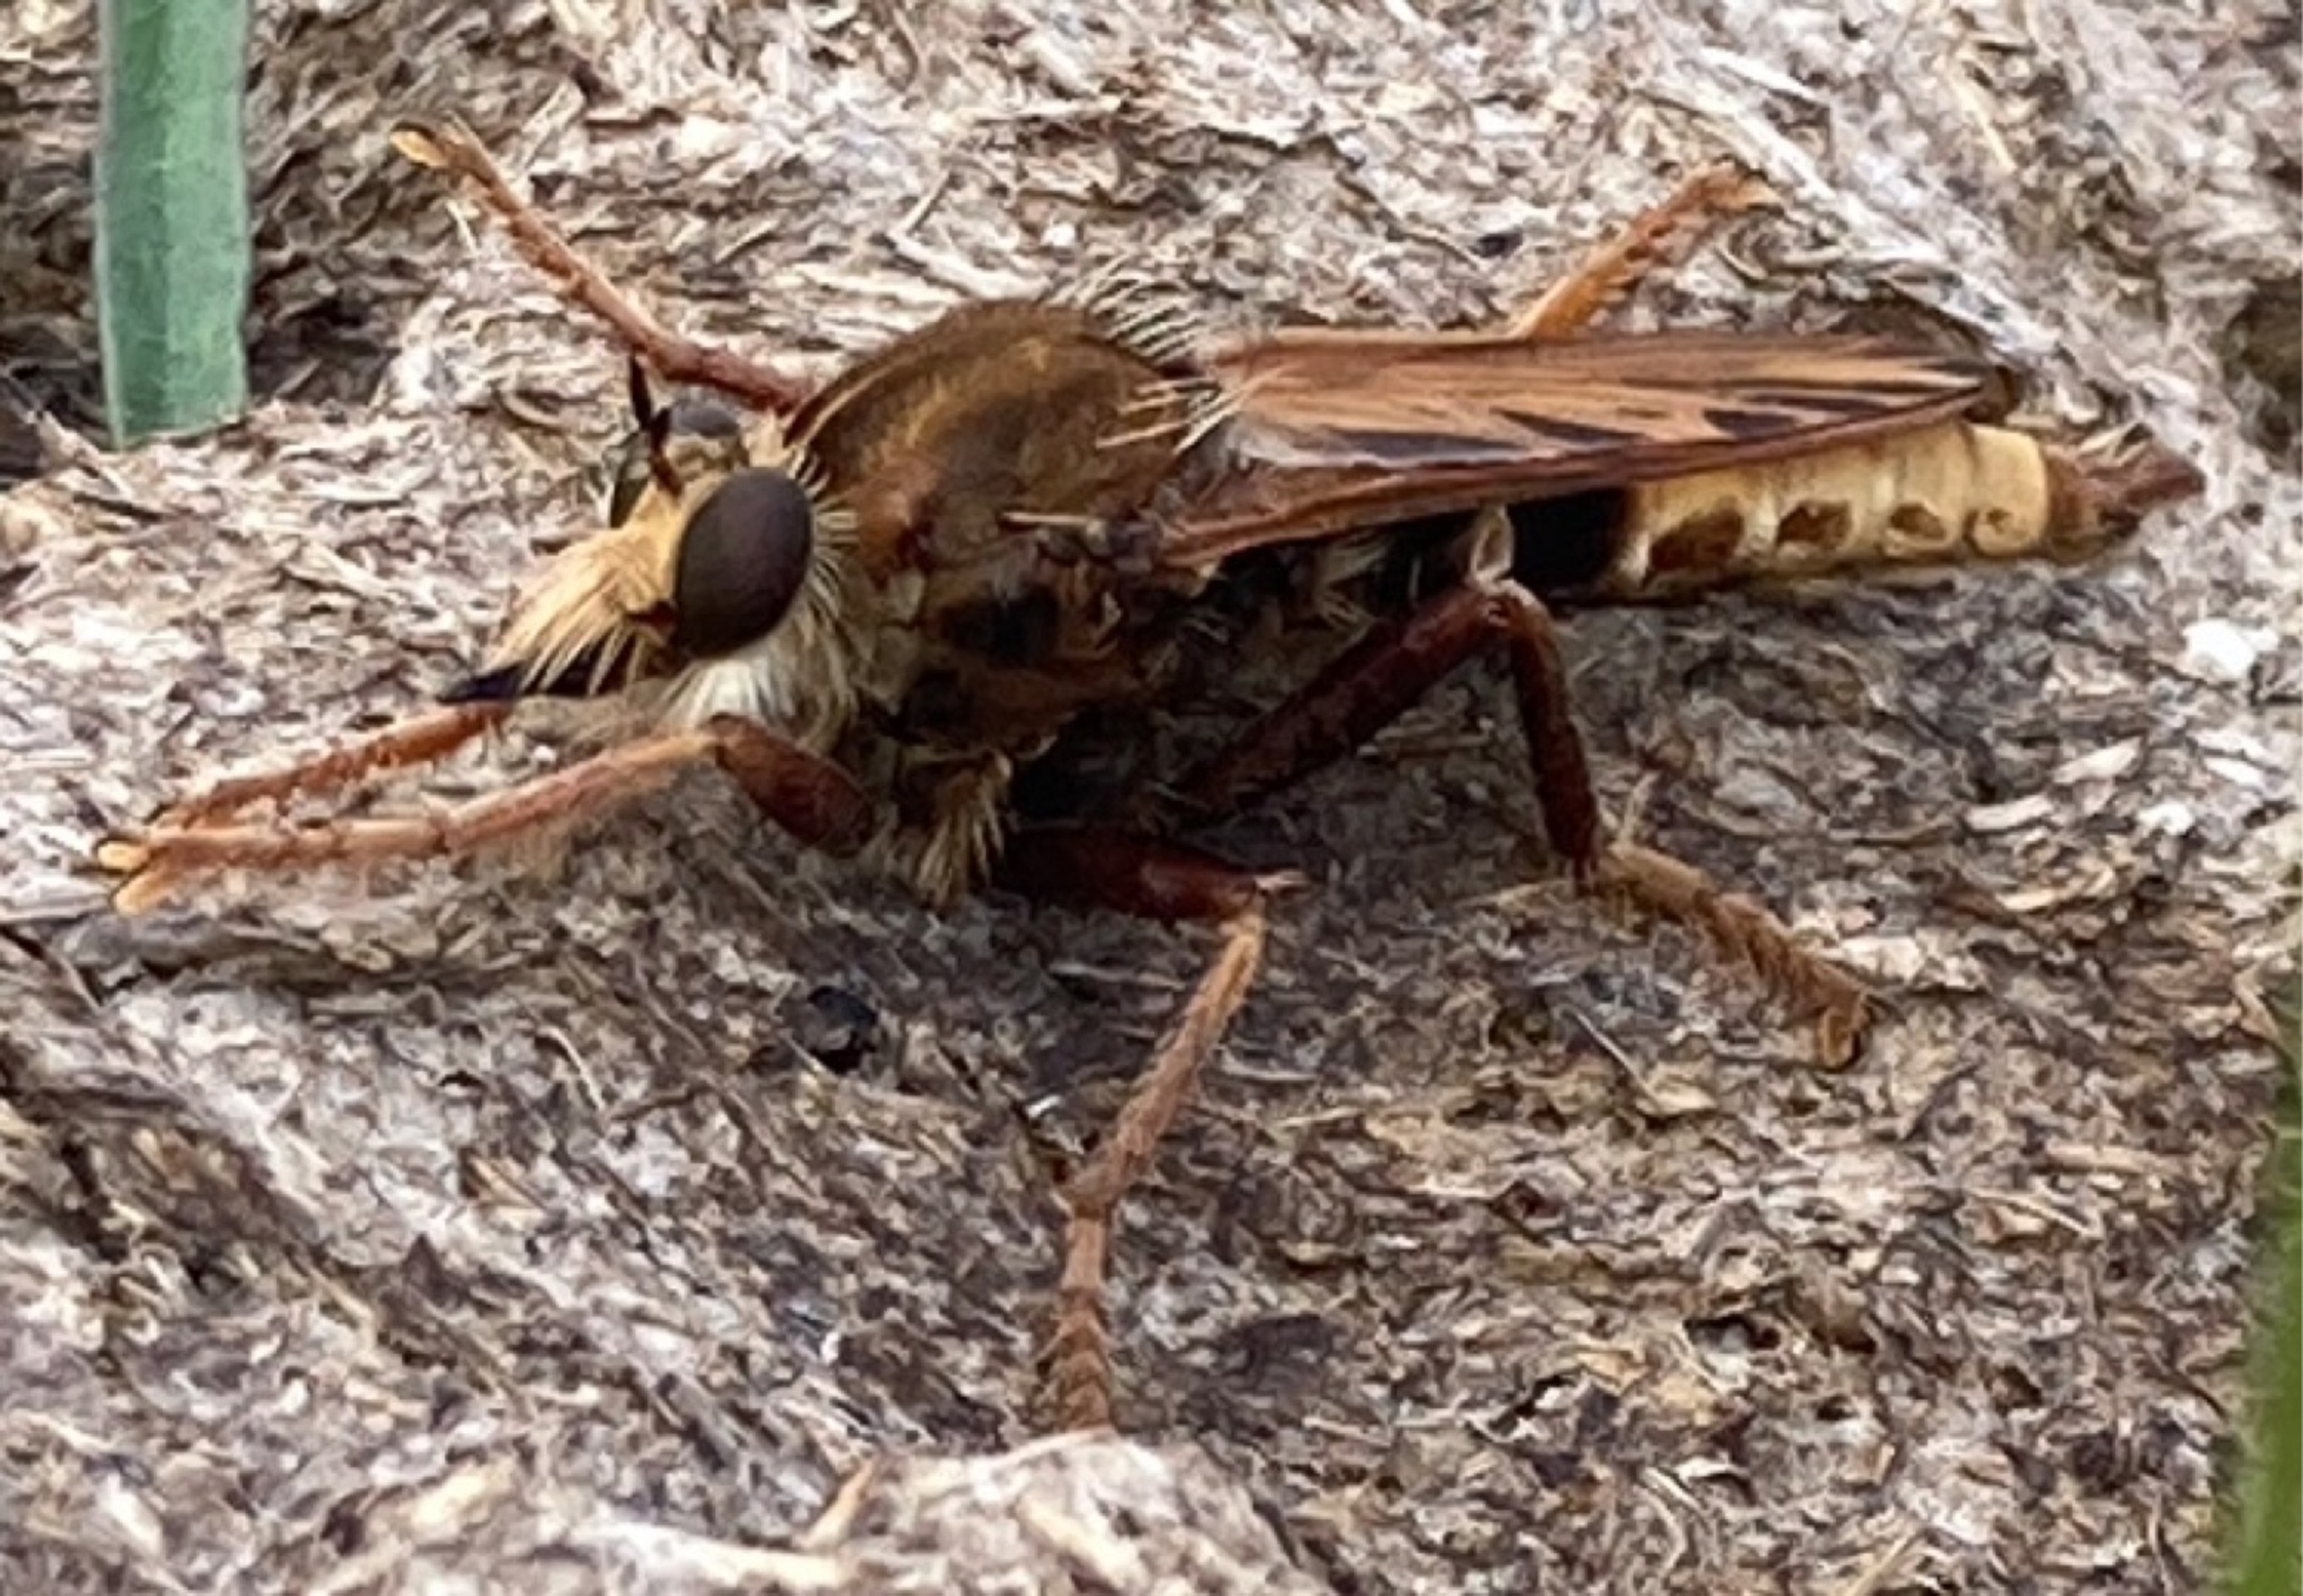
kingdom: Animalia
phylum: Arthropoda
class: Insecta
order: Diptera
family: Asilidae
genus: Asilus
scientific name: Asilus crabroniformis
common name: Stor gødningsrovflue
